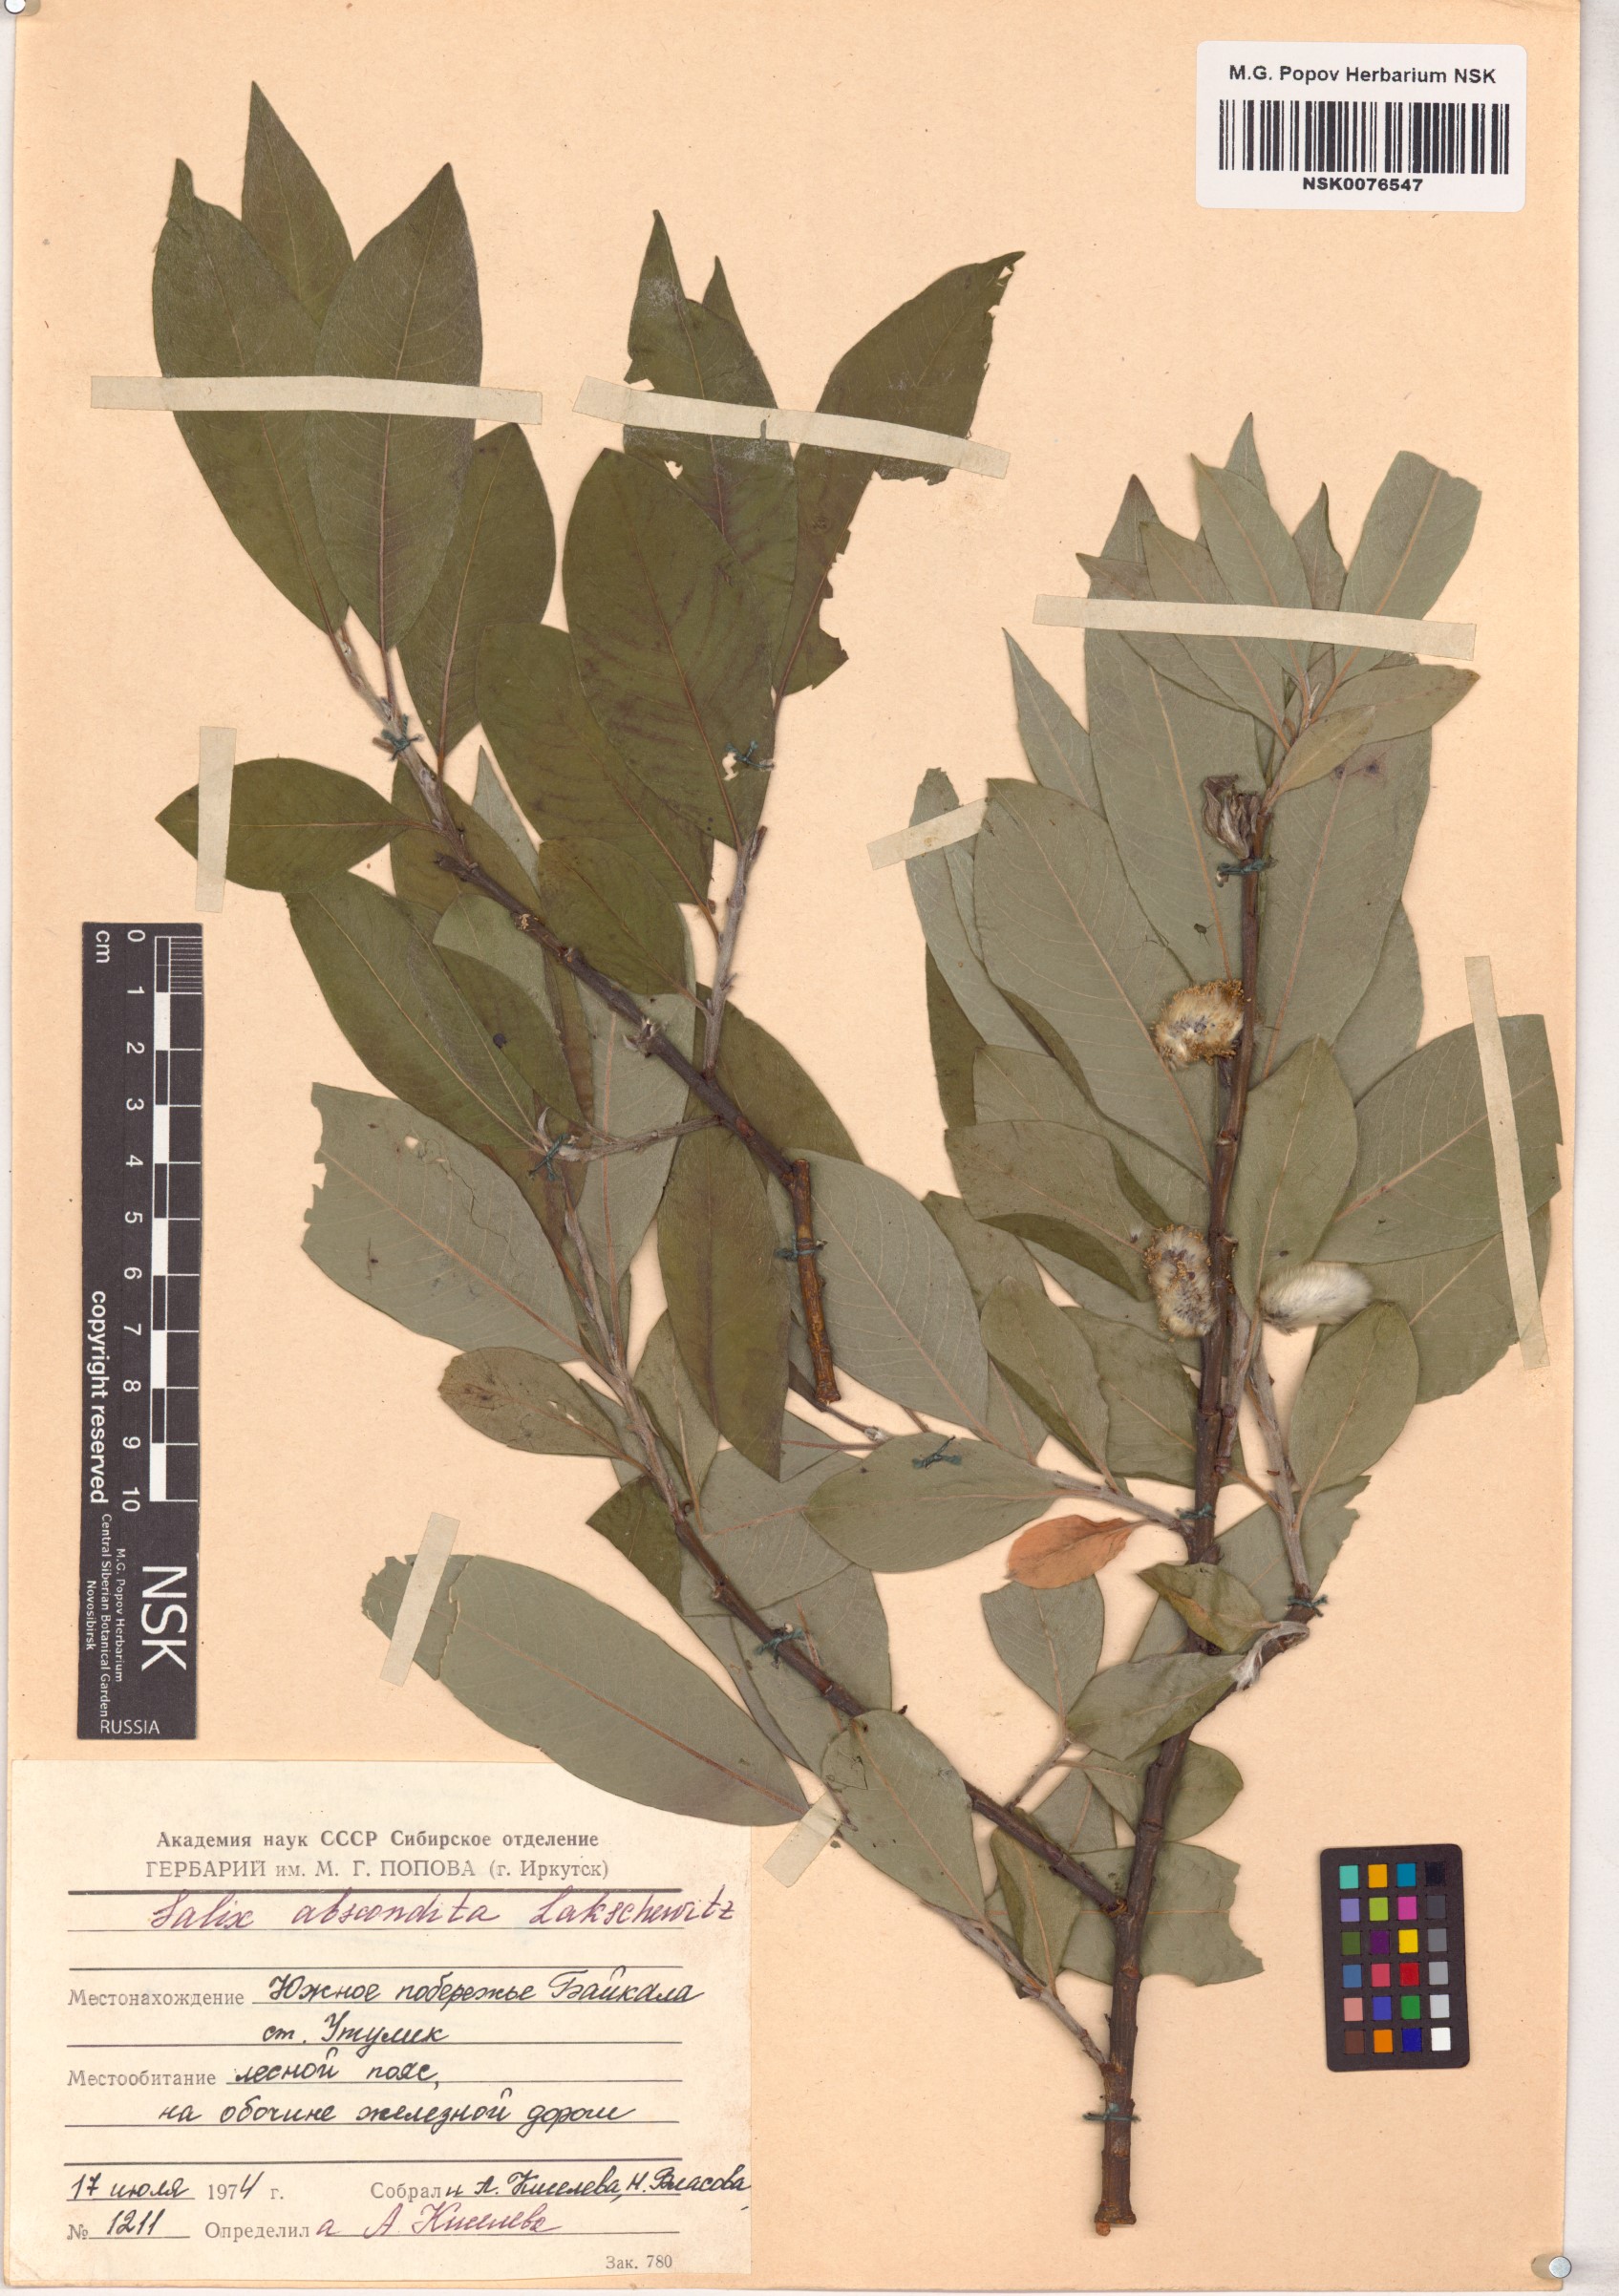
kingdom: Plantae
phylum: Tracheophyta
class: Magnoliopsida
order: Malpighiales
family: Salicaceae
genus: Salix
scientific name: Salix abscondita
